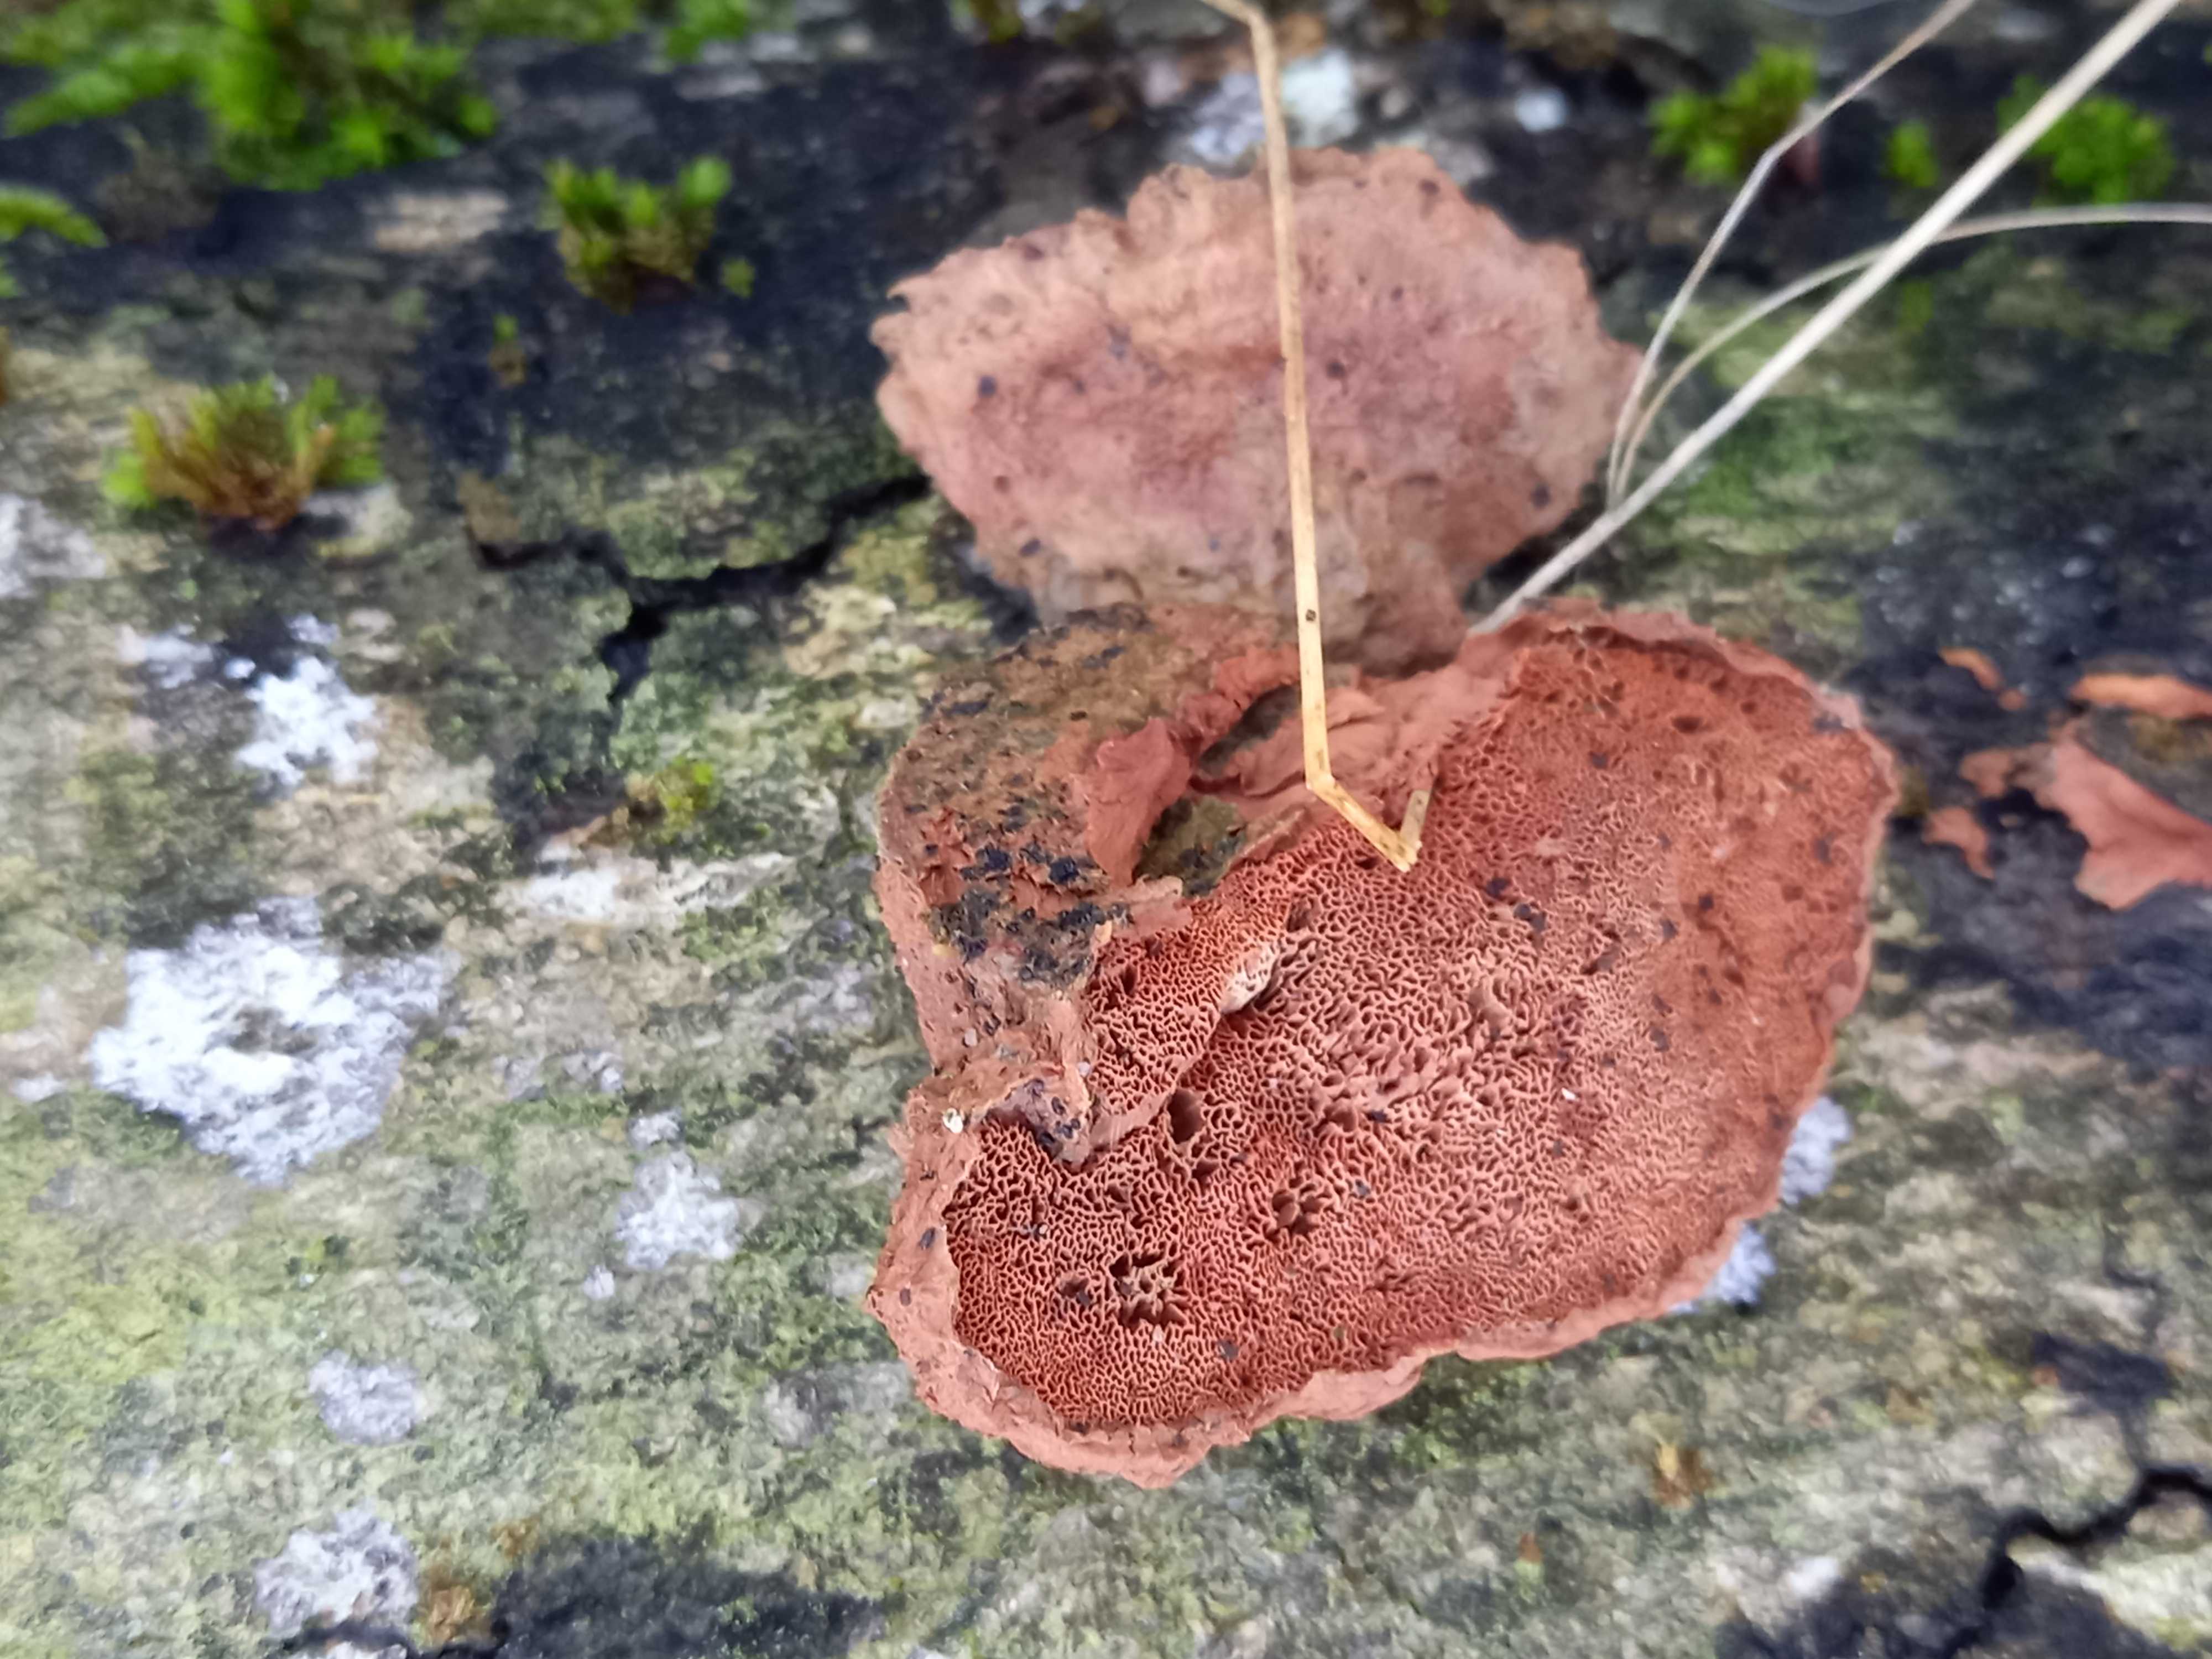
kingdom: Fungi
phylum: Basidiomycota
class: Agaricomycetes
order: Polyporales
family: Phanerochaetaceae
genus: Hapalopilus
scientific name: Hapalopilus rutilans
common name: rødlig okkerporesvamp
